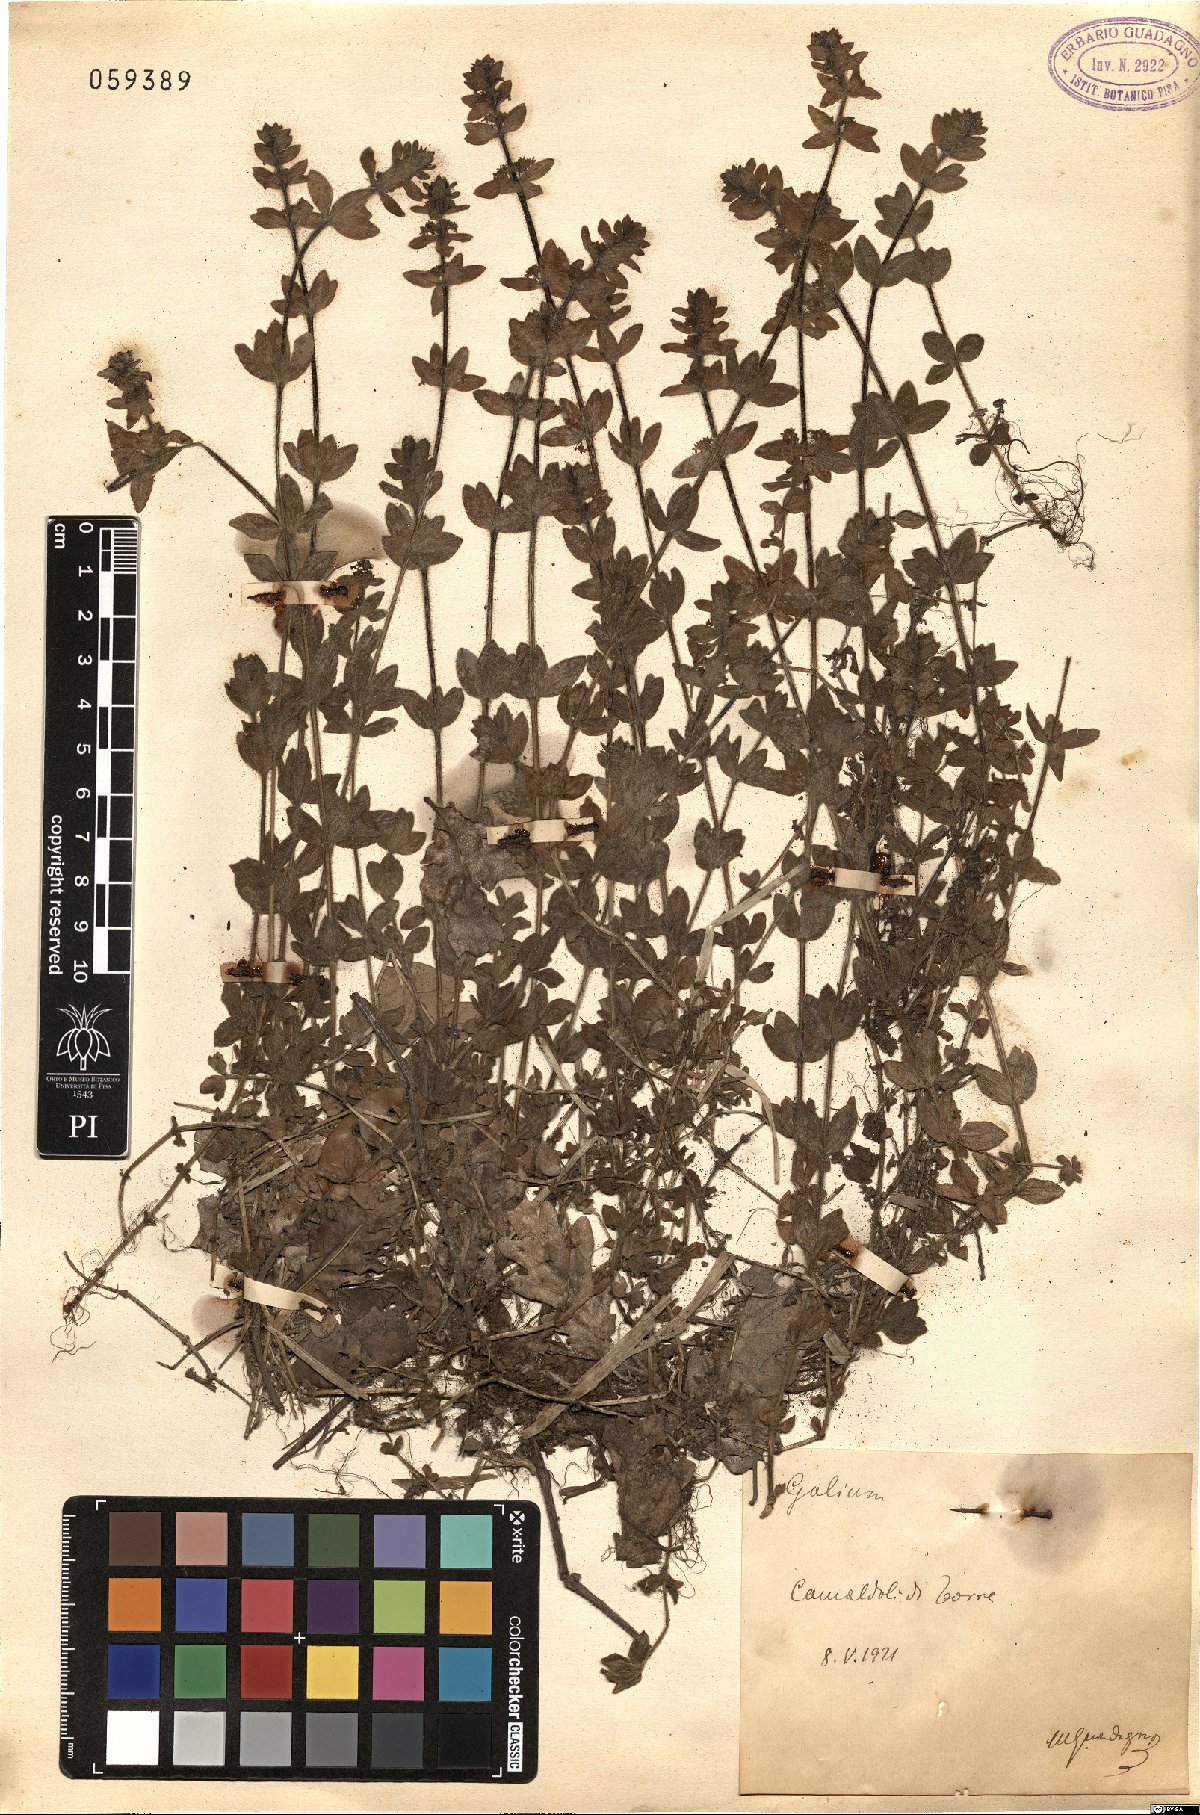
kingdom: Plantae
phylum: Tracheophyta
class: Magnoliopsida
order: Gentianales
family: Rubiaceae
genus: Galium
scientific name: Galium
